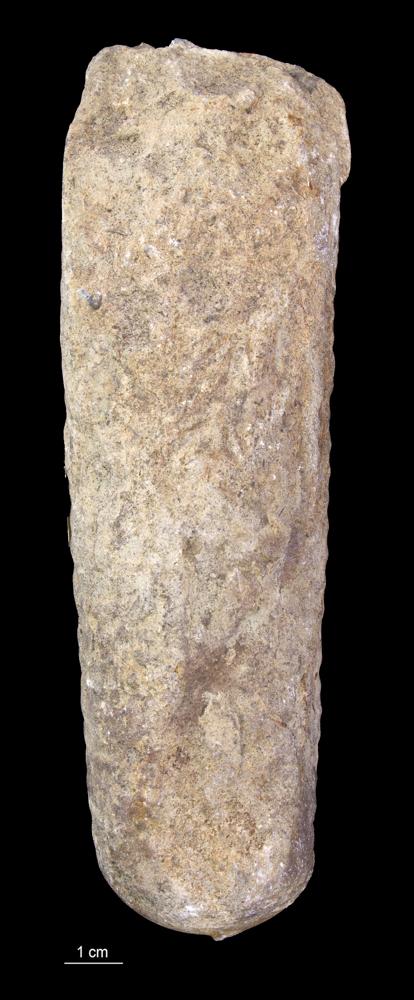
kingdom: Animalia
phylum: Mollusca
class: Cephalopoda
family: Lituitidae
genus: Lituites
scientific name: Lituites
